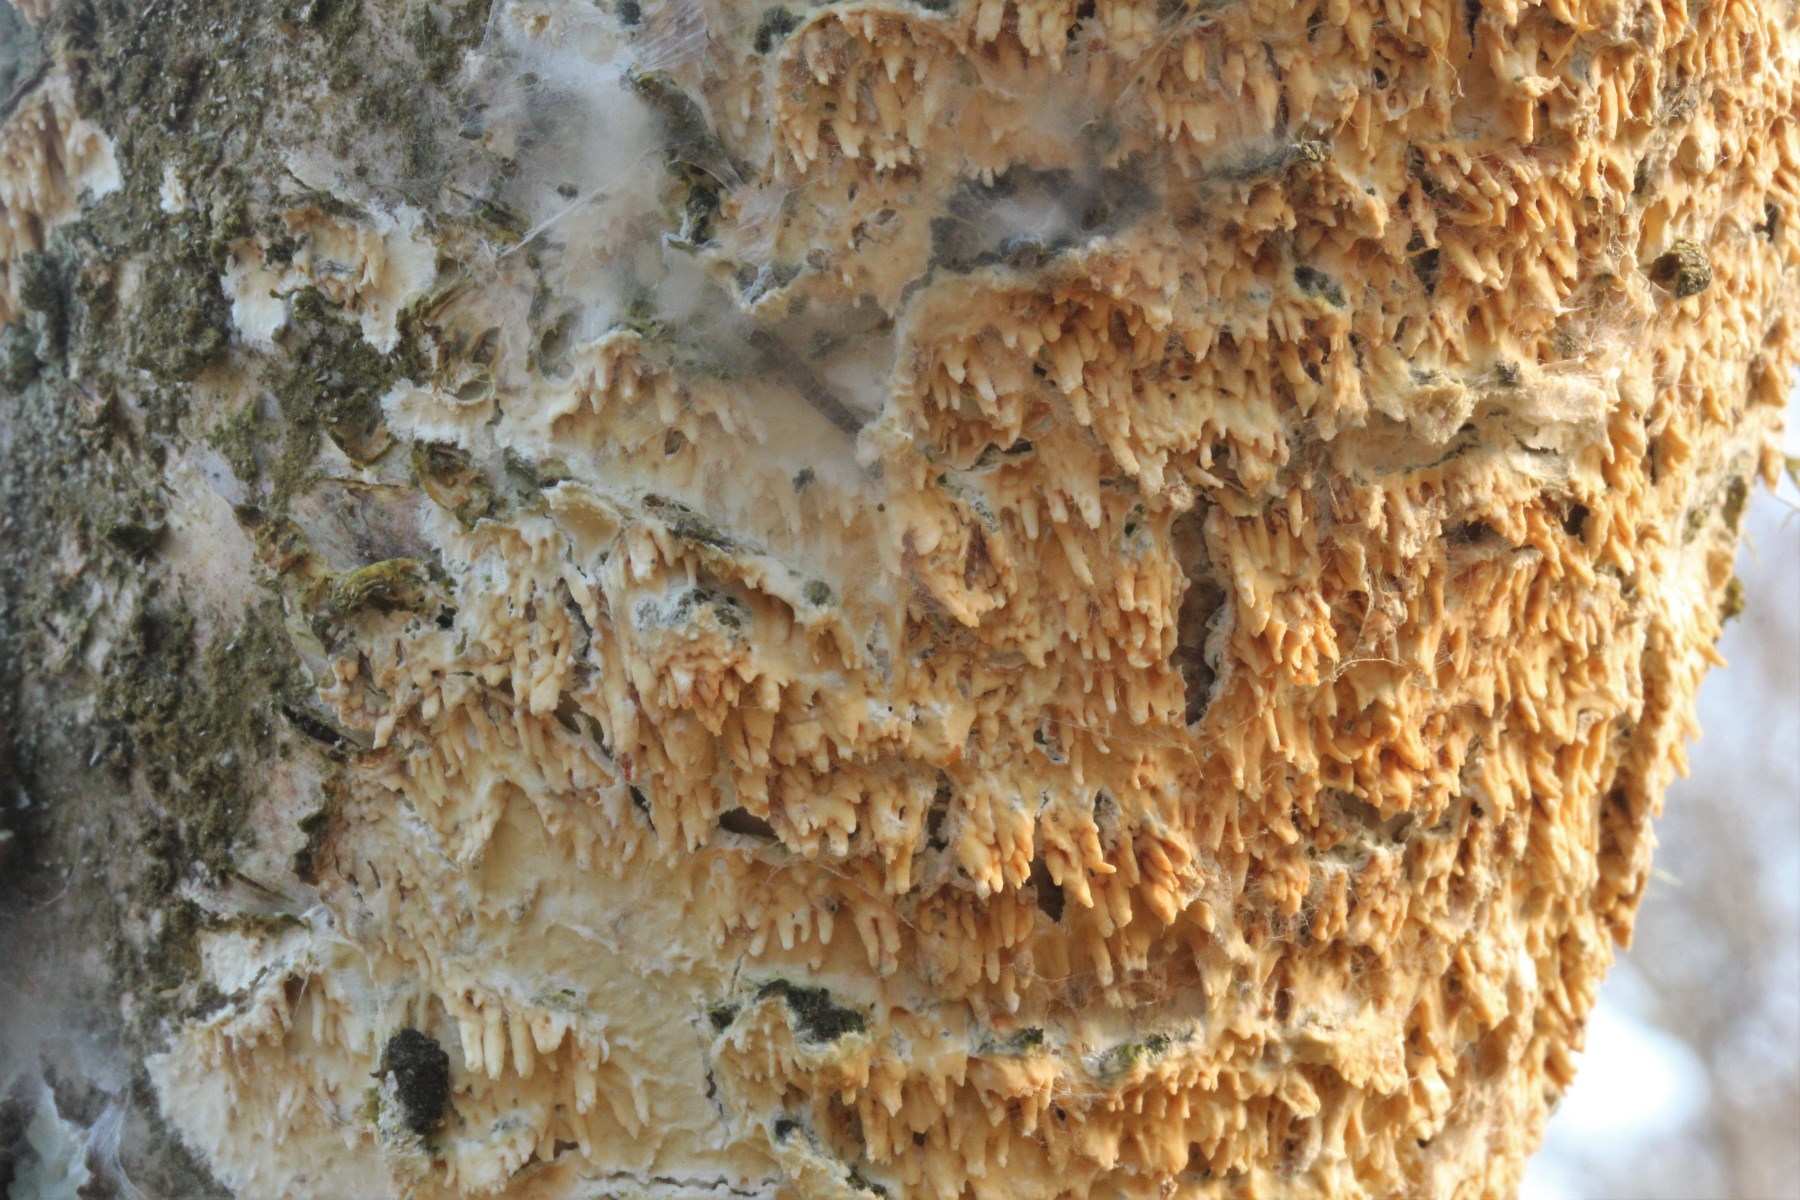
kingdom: Fungi
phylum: Basidiomycota
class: Agaricomycetes
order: Hymenochaetales
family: Schizoporaceae
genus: Xylodon
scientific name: Xylodon radula
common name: grovtandet kalkskind
